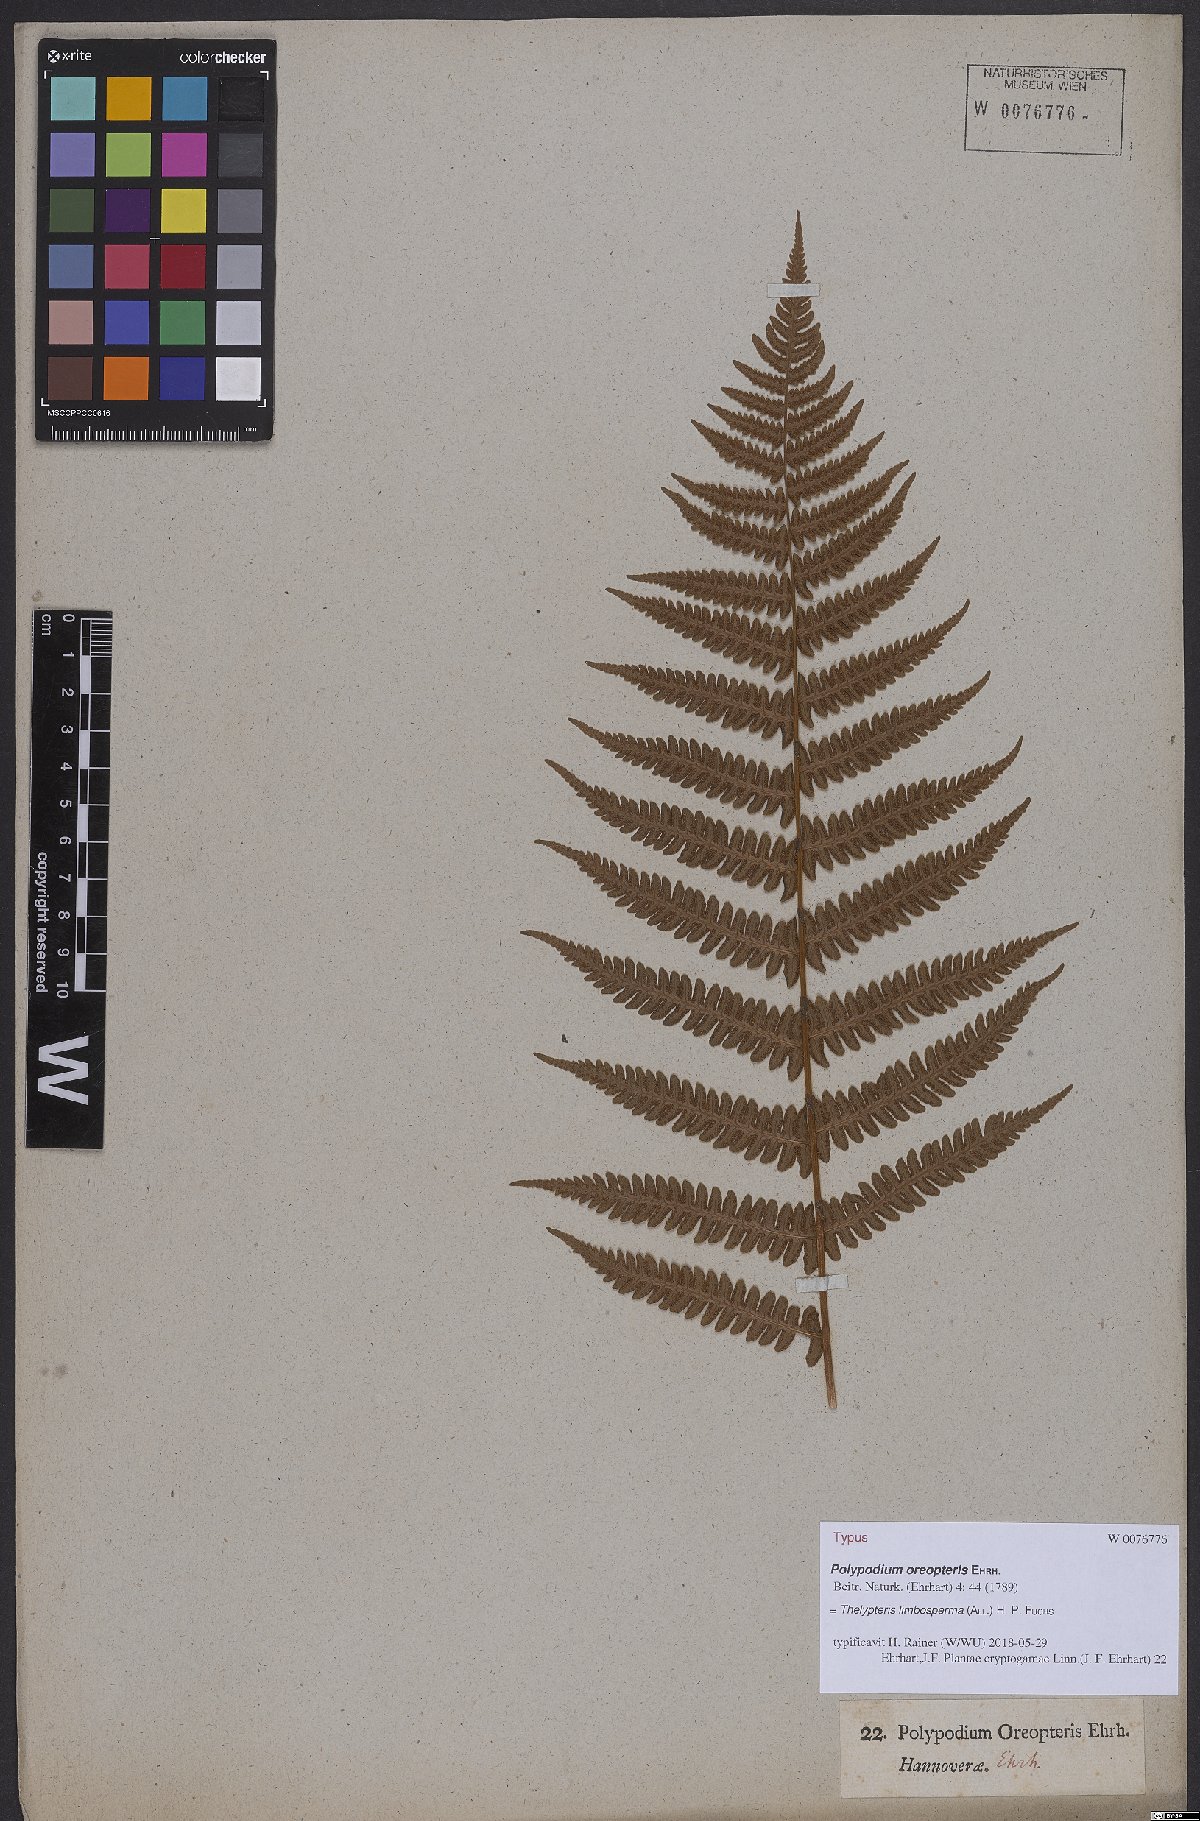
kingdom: Plantae
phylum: Tracheophyta
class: Polypodiopsida
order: Polypodiales
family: Thelypteridaceae
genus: Oreopteris
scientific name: Oreopteris limbosperma
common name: Lemon-scented fern
